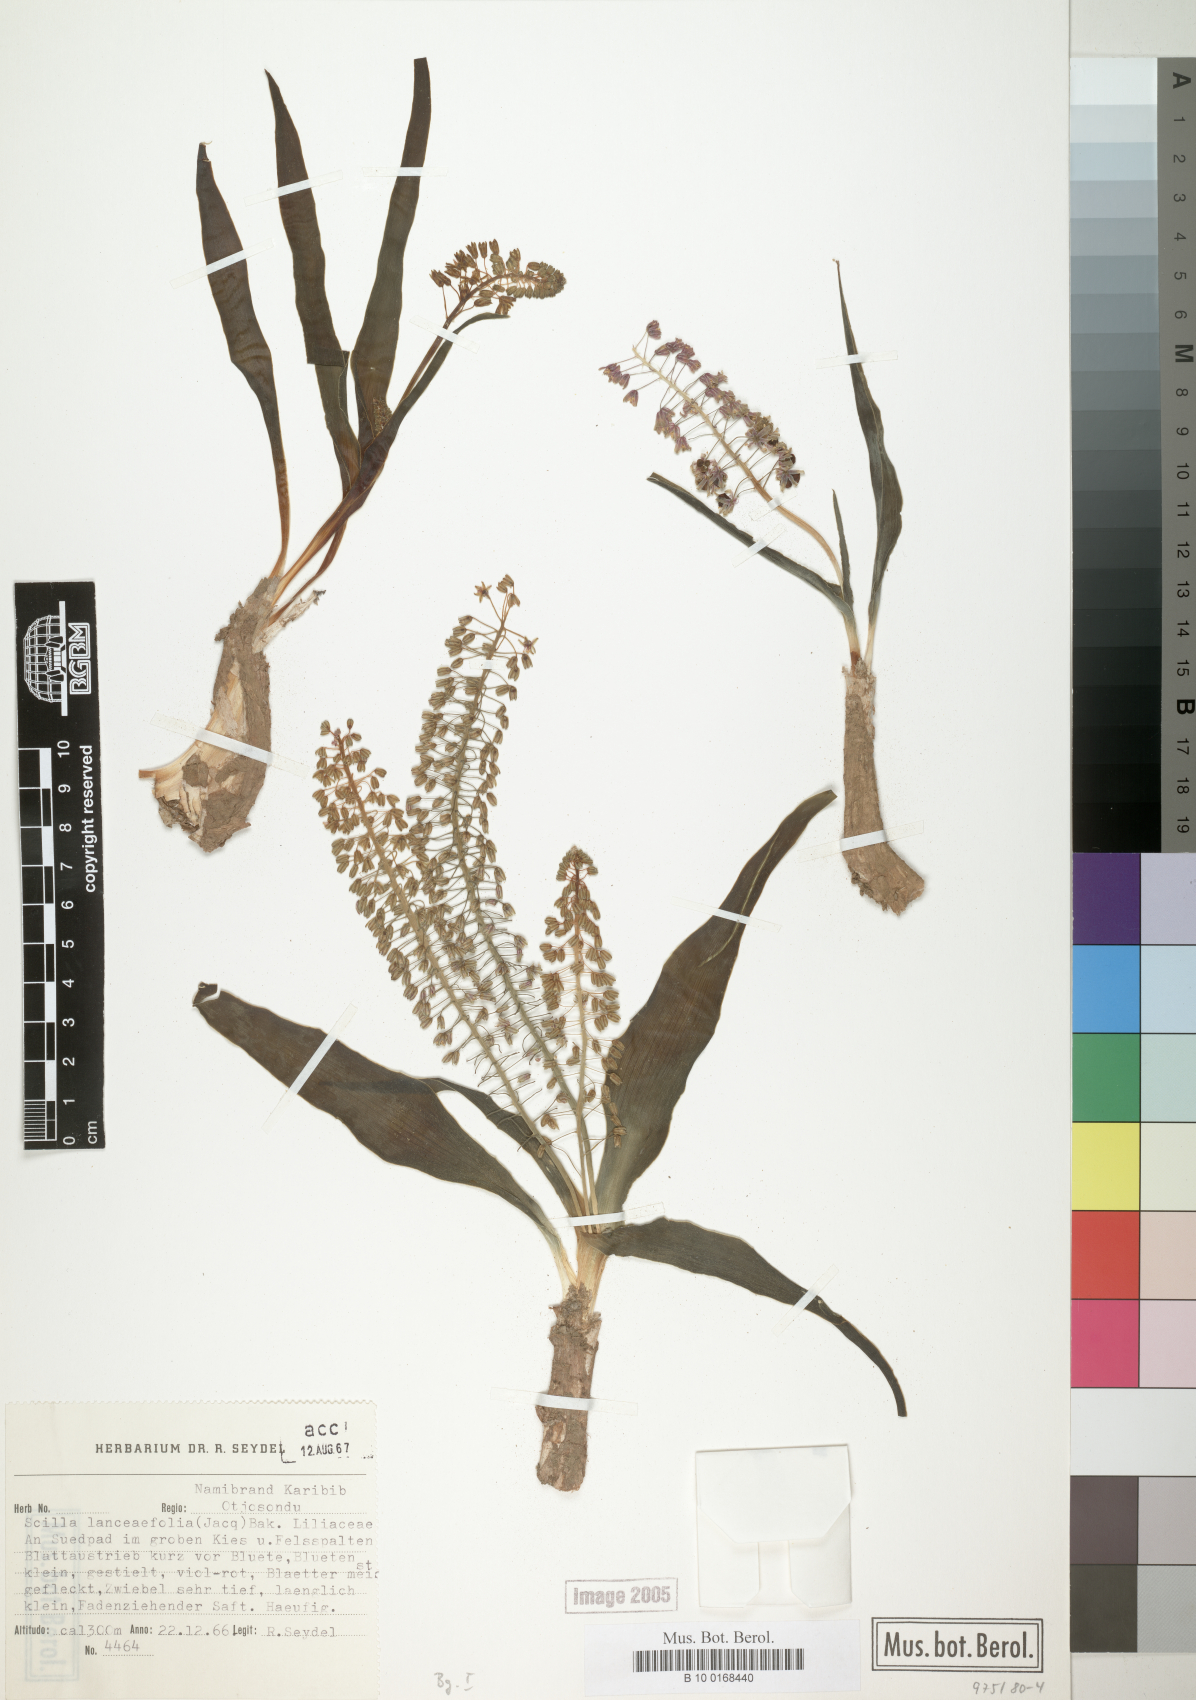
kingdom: Plantae
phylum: Tracheophyta
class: Liliopsida
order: Asparagales
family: Asparagaceae
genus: Ledebouria
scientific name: Ledebouria revoluta
